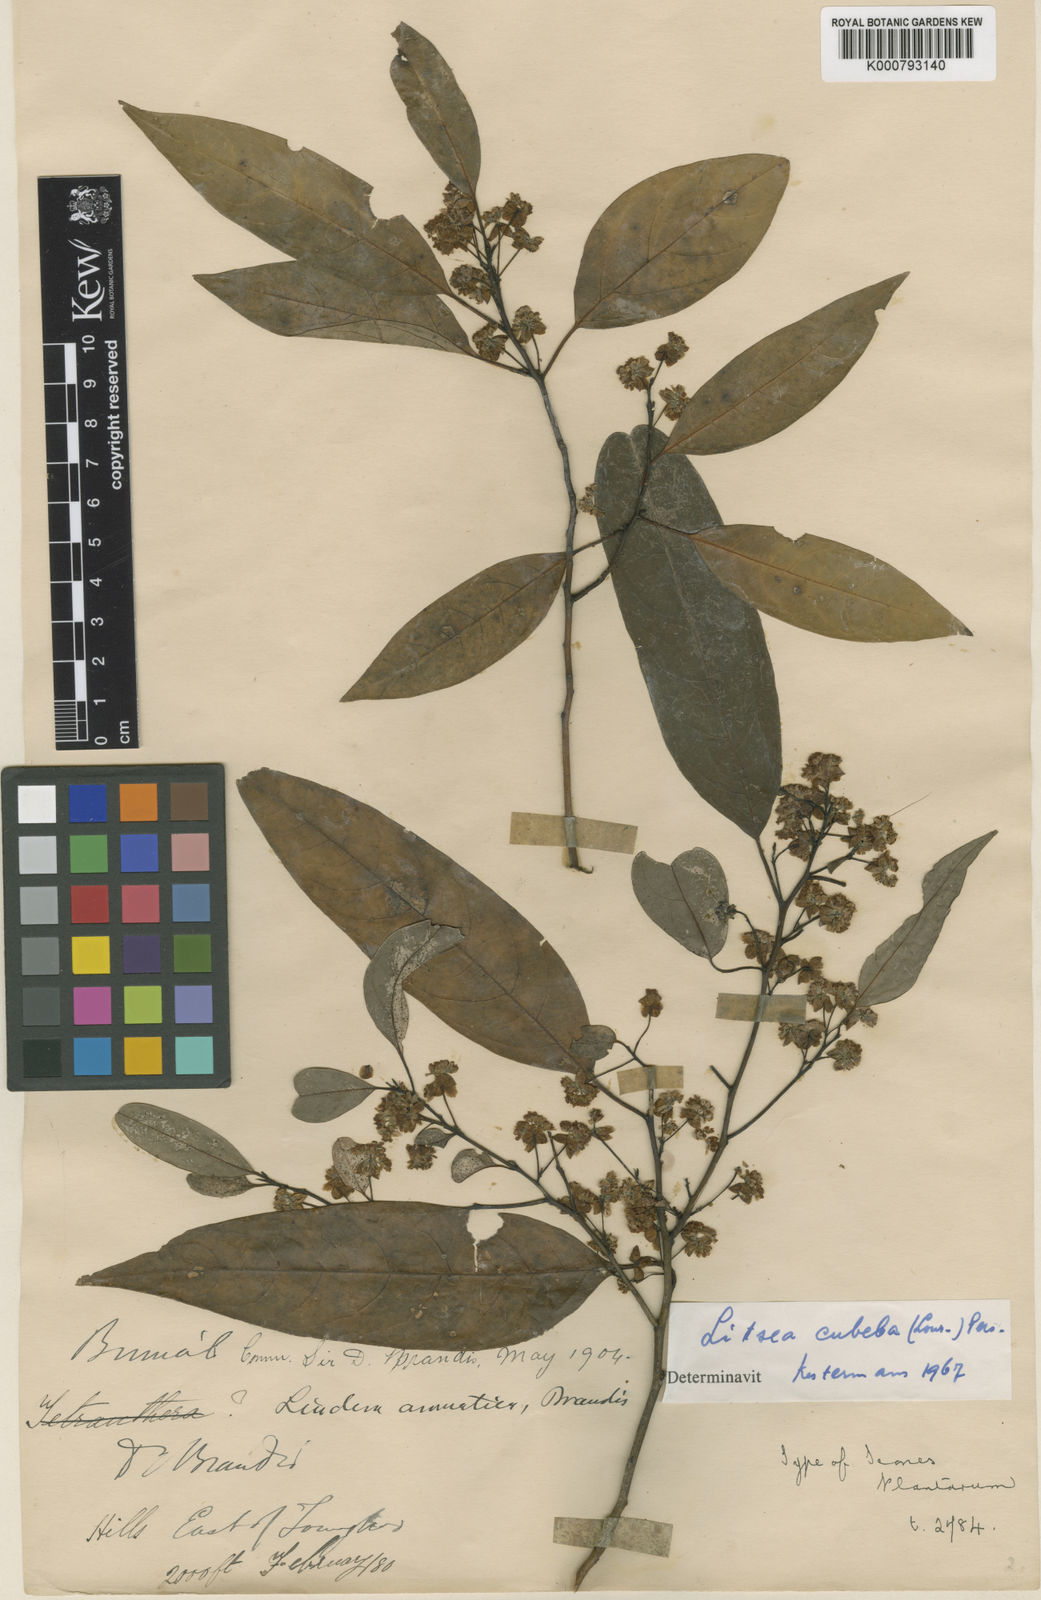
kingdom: Plantae
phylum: Tracheophyta
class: Magnoliopsida
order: Laurales
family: Lauraceae
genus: Litsea
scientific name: Litsea cubeba
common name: Mountain-pepper
